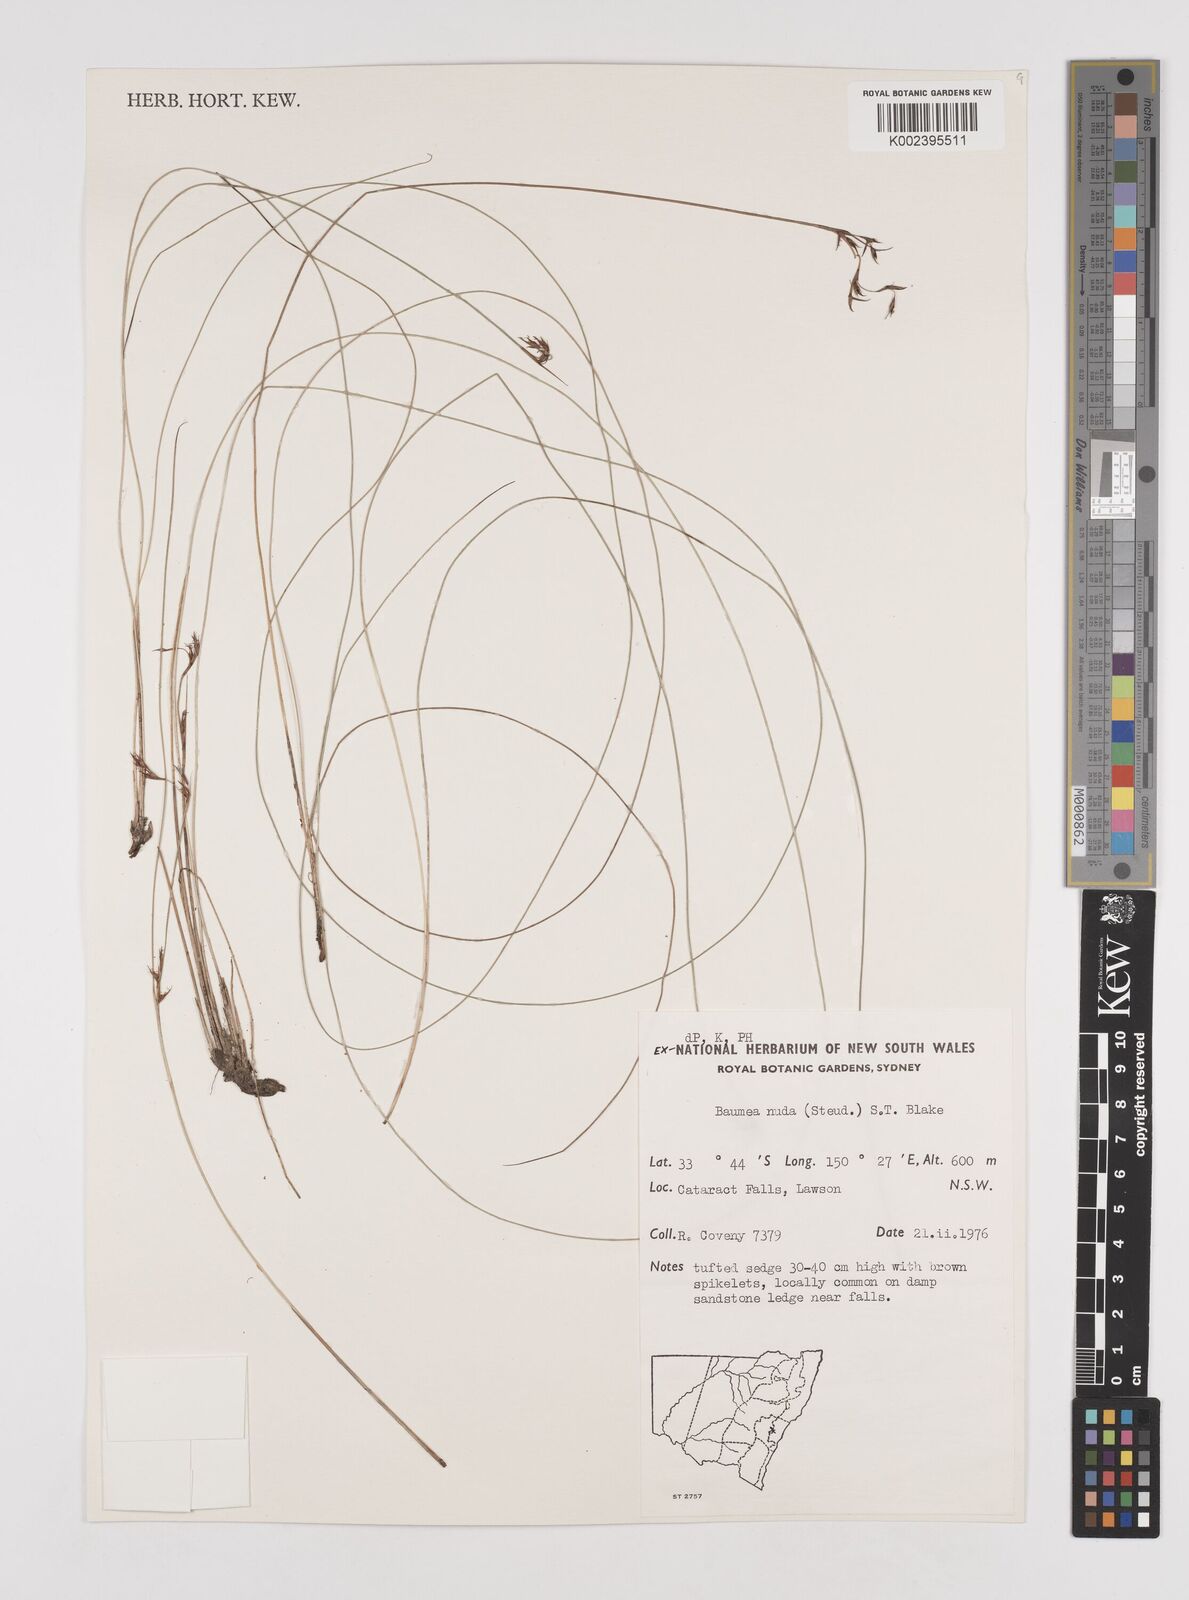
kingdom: Plantae
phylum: Tracheophyta
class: Liliopsida
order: Poales
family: Cyperaceae
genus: Machaerina
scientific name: Machaerina nuda
